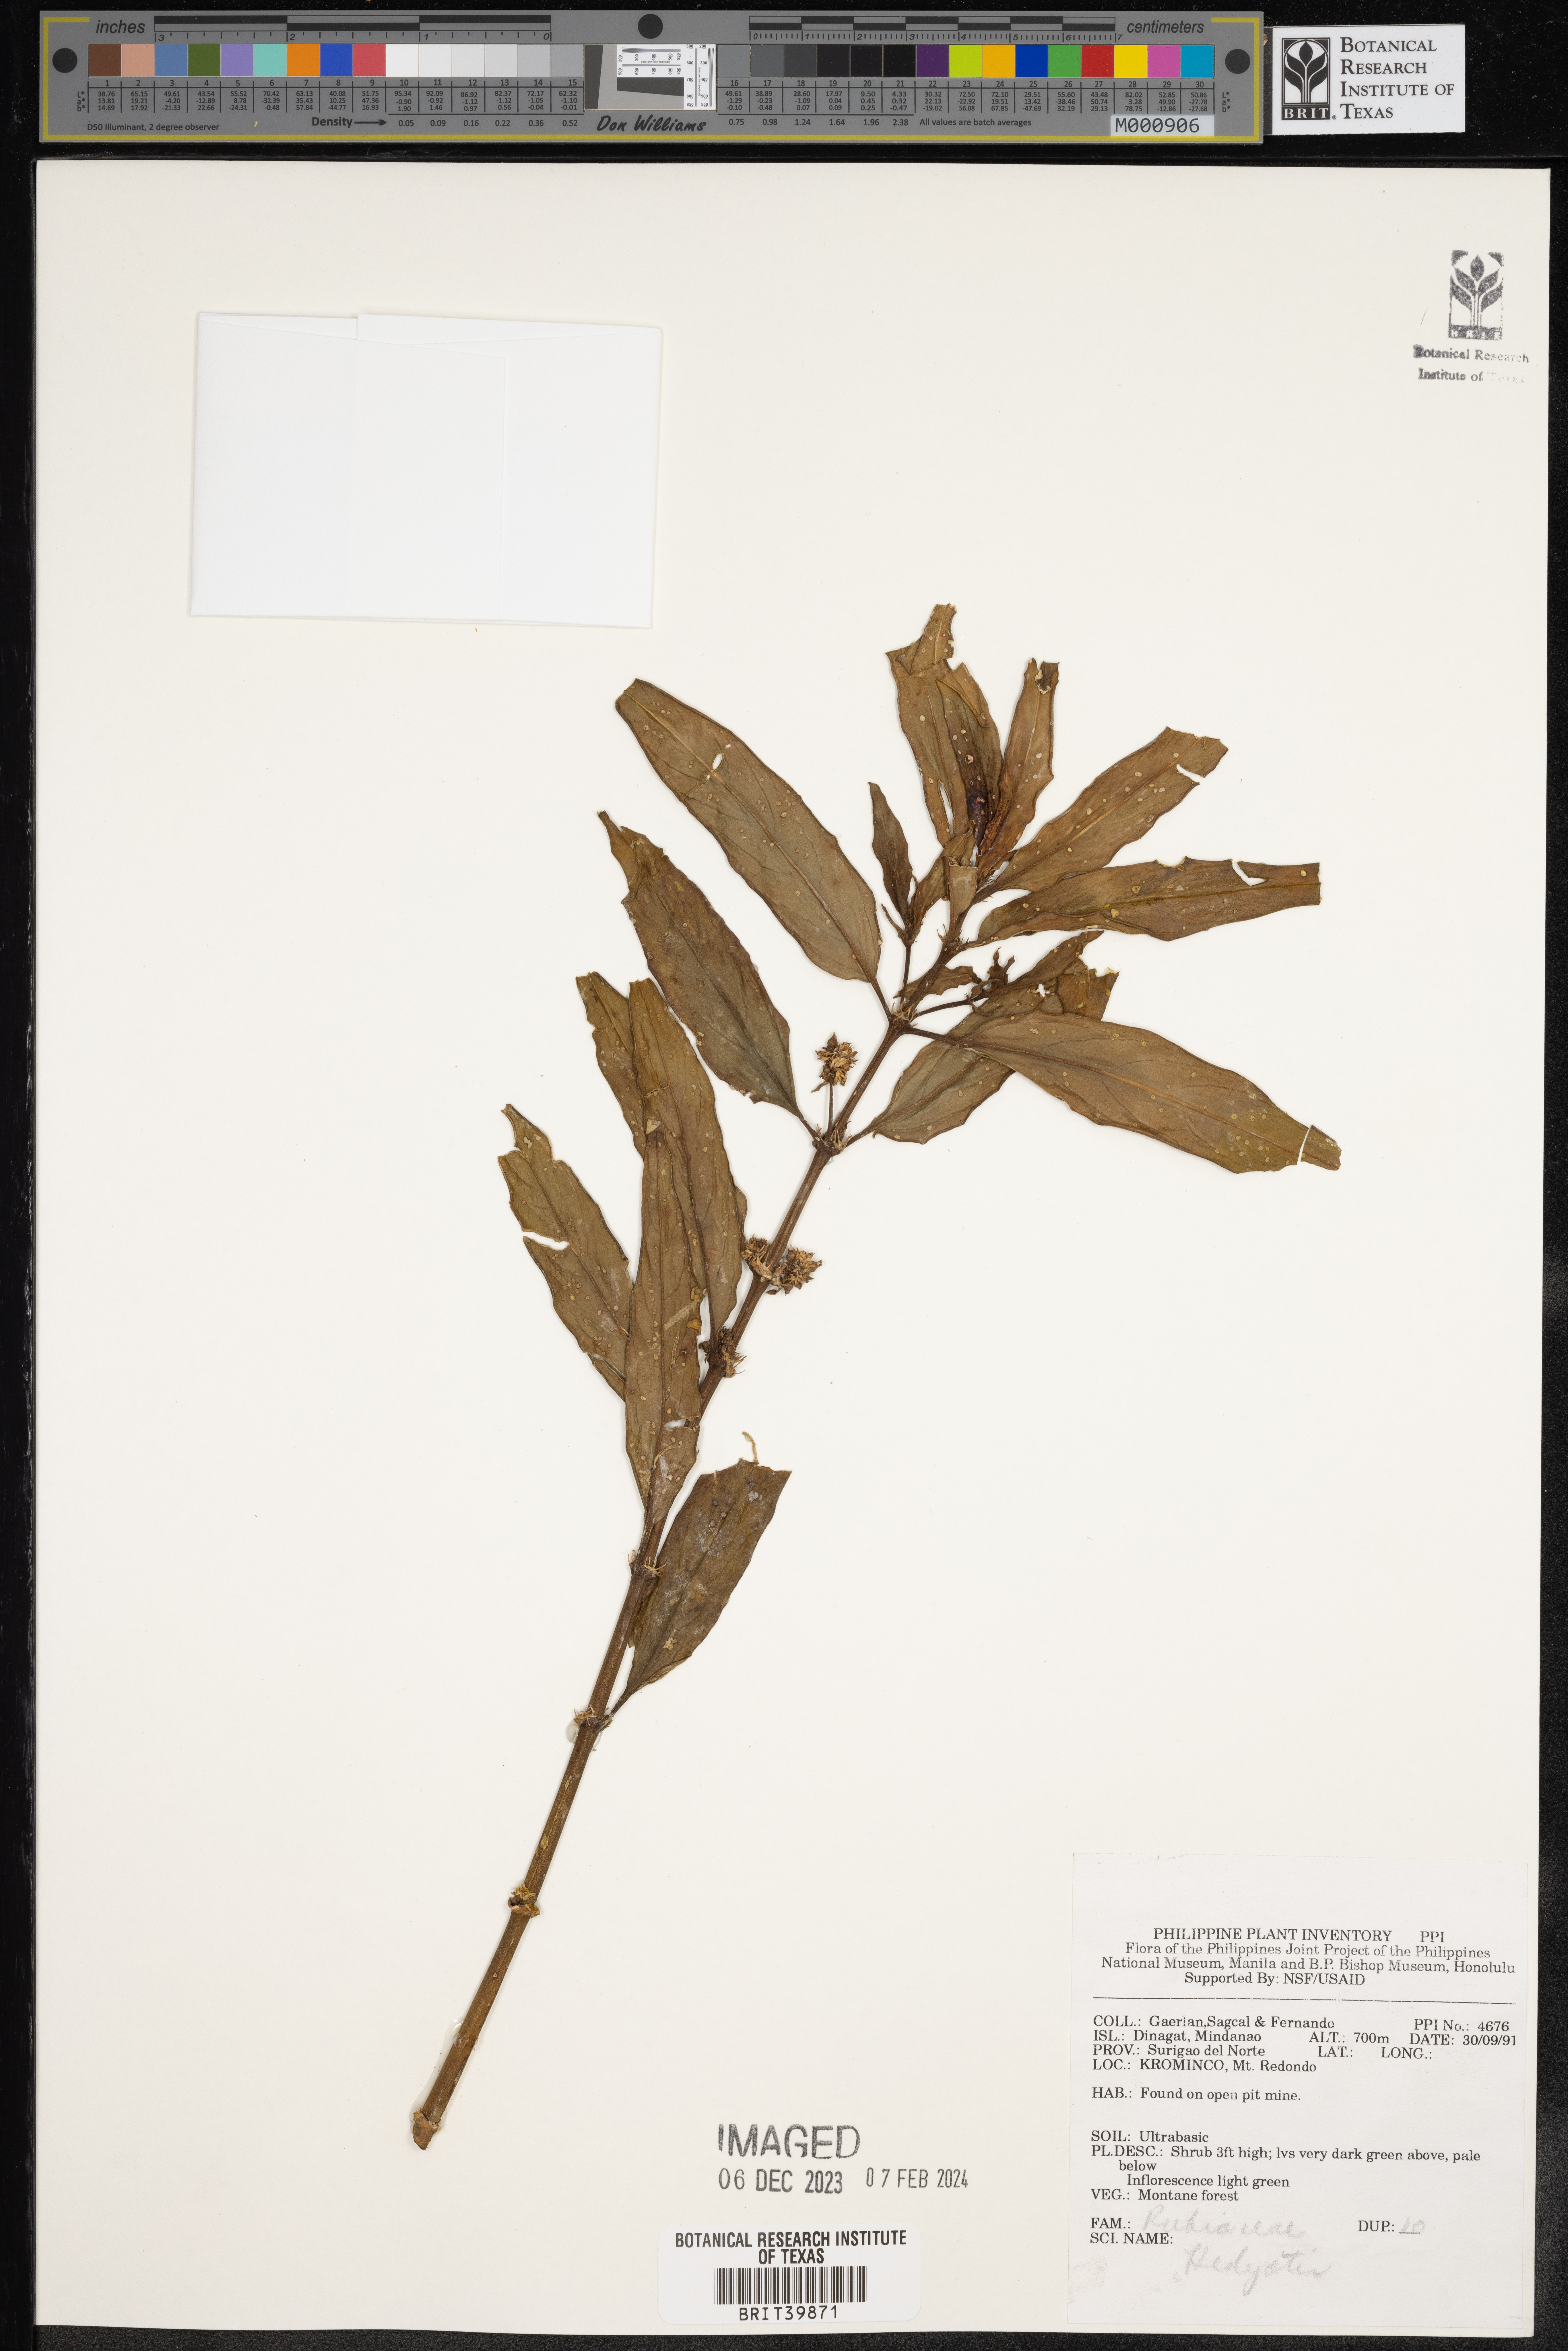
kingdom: Plantae
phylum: Tracheophyta
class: Magnoliopsida
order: Gentianales
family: Rubiaceae
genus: Hedyotis
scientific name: Hedyotis
